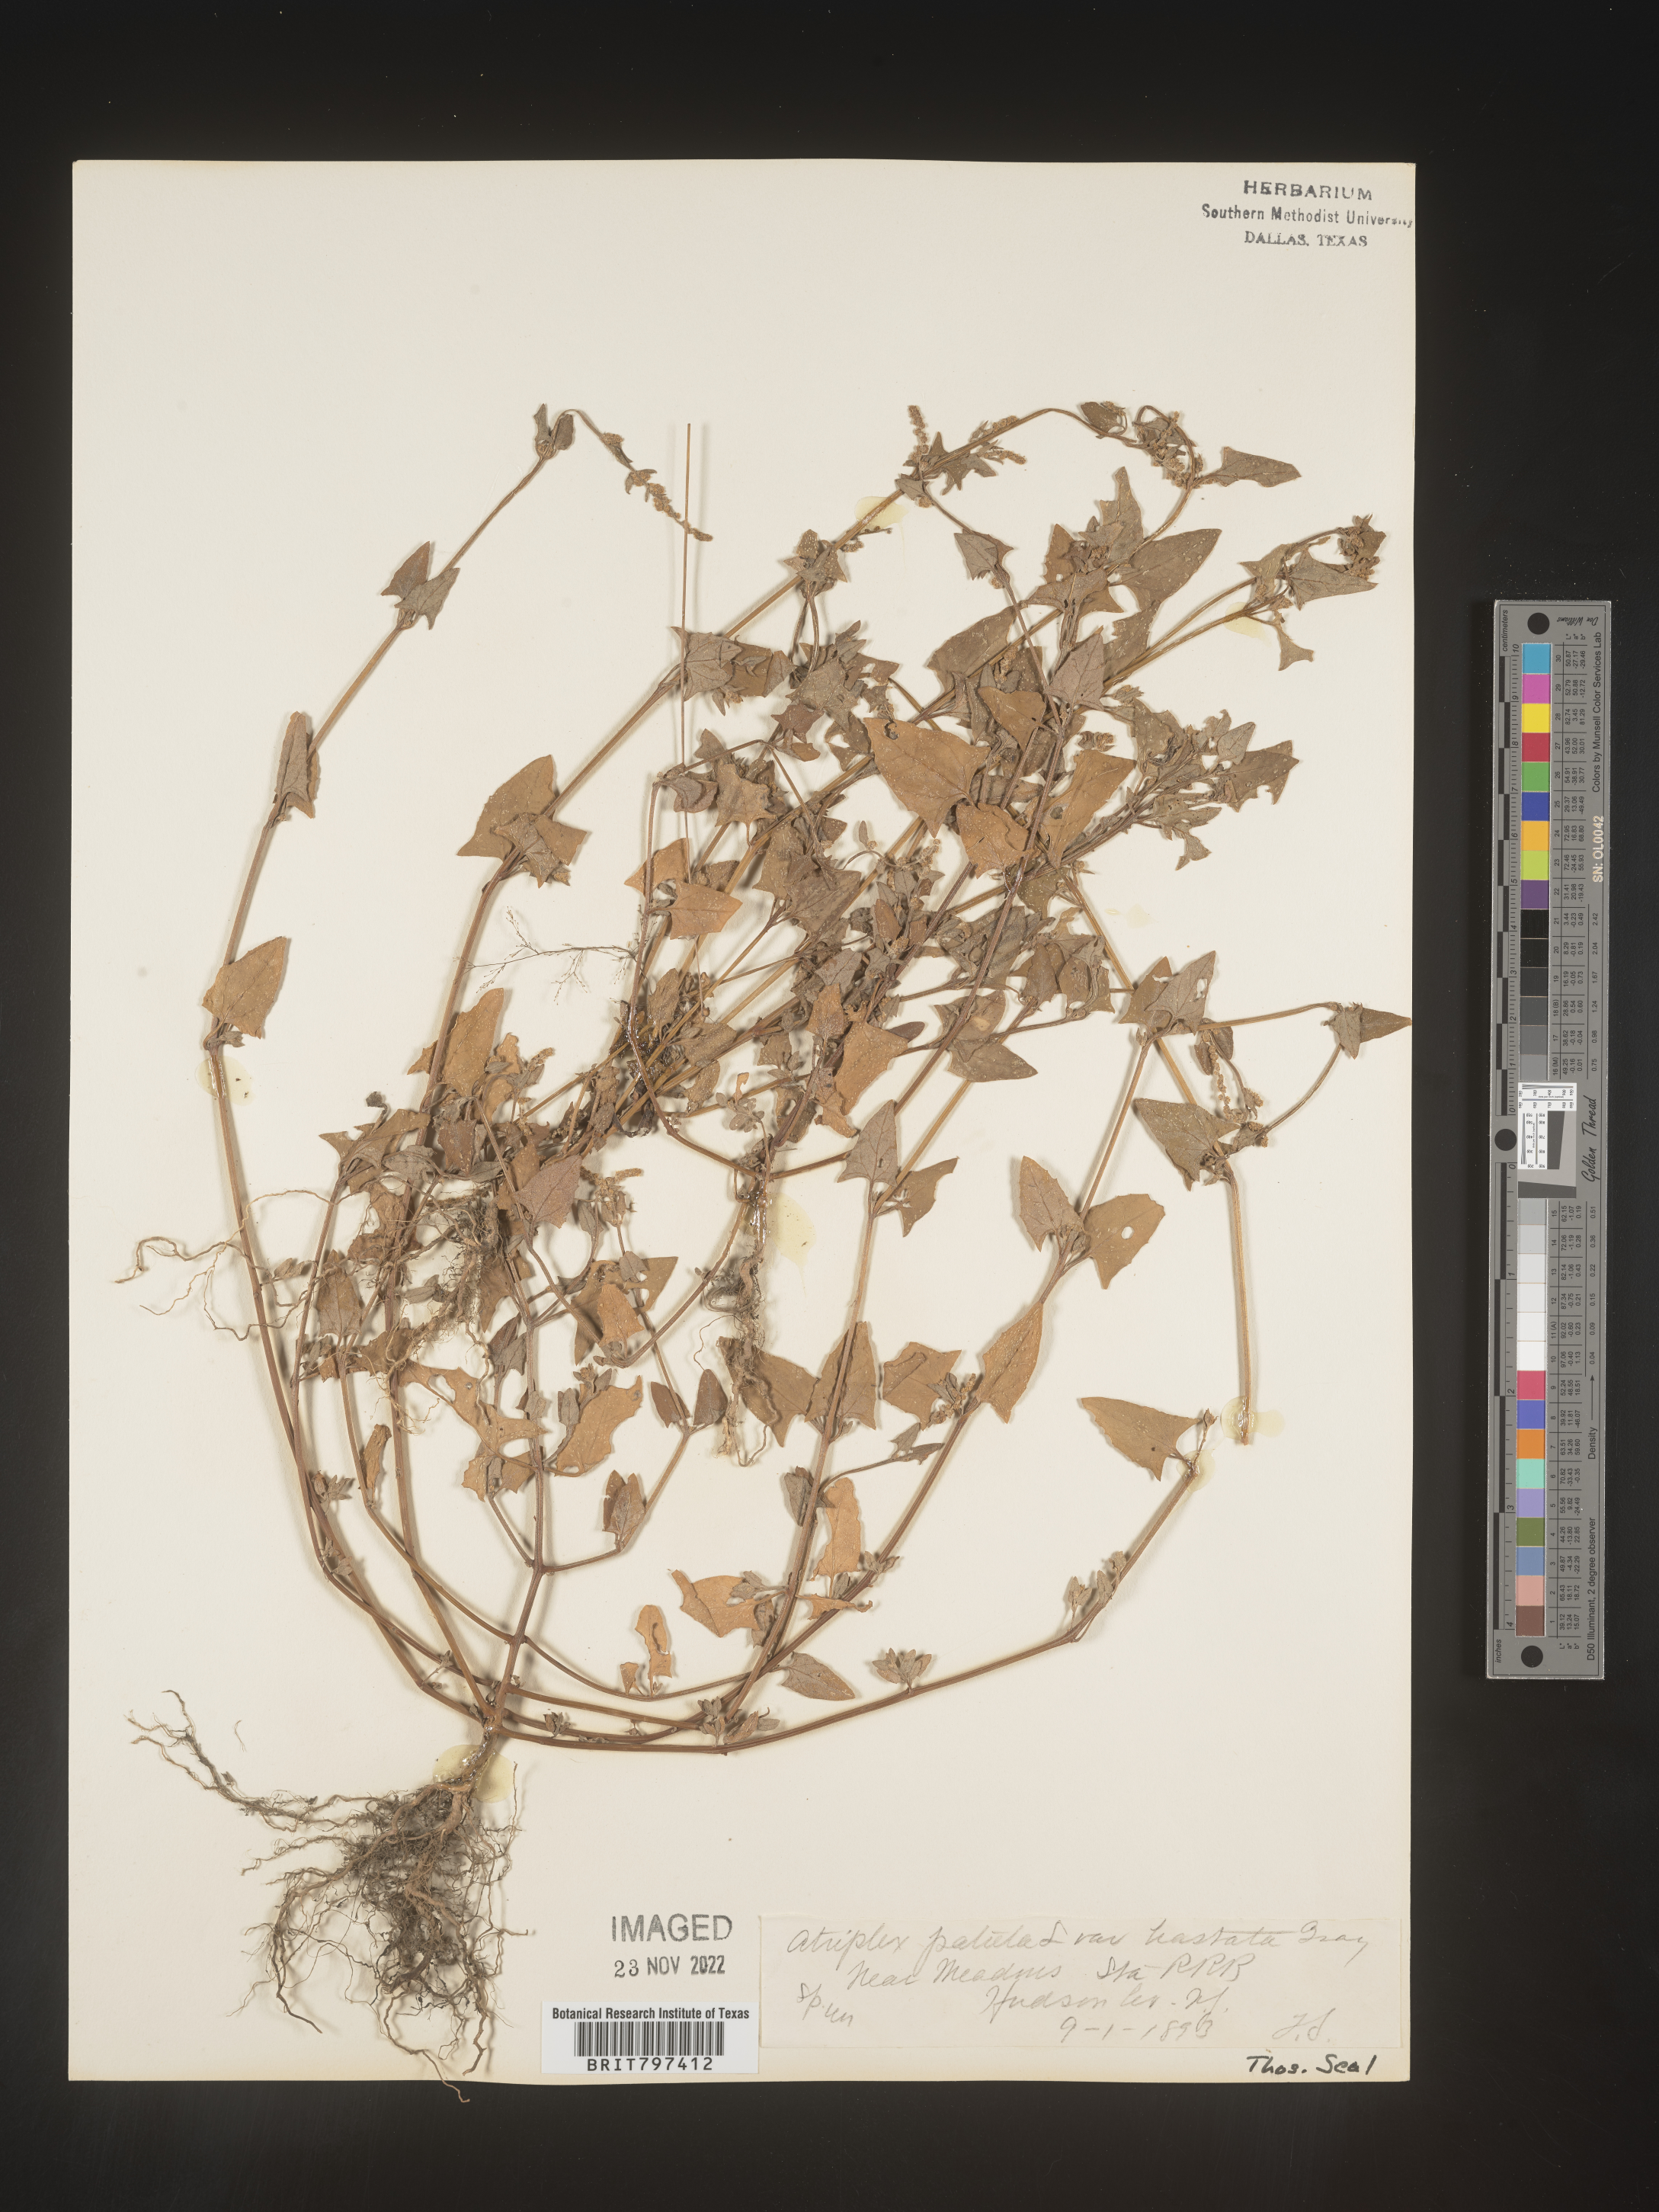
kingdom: Plantae
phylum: Tracheophyta
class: Magnoliopsida
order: Caryophyllales
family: Amaranthaceae
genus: Atriplex
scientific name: Atriplex prostrata
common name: Spear-leaved orache
